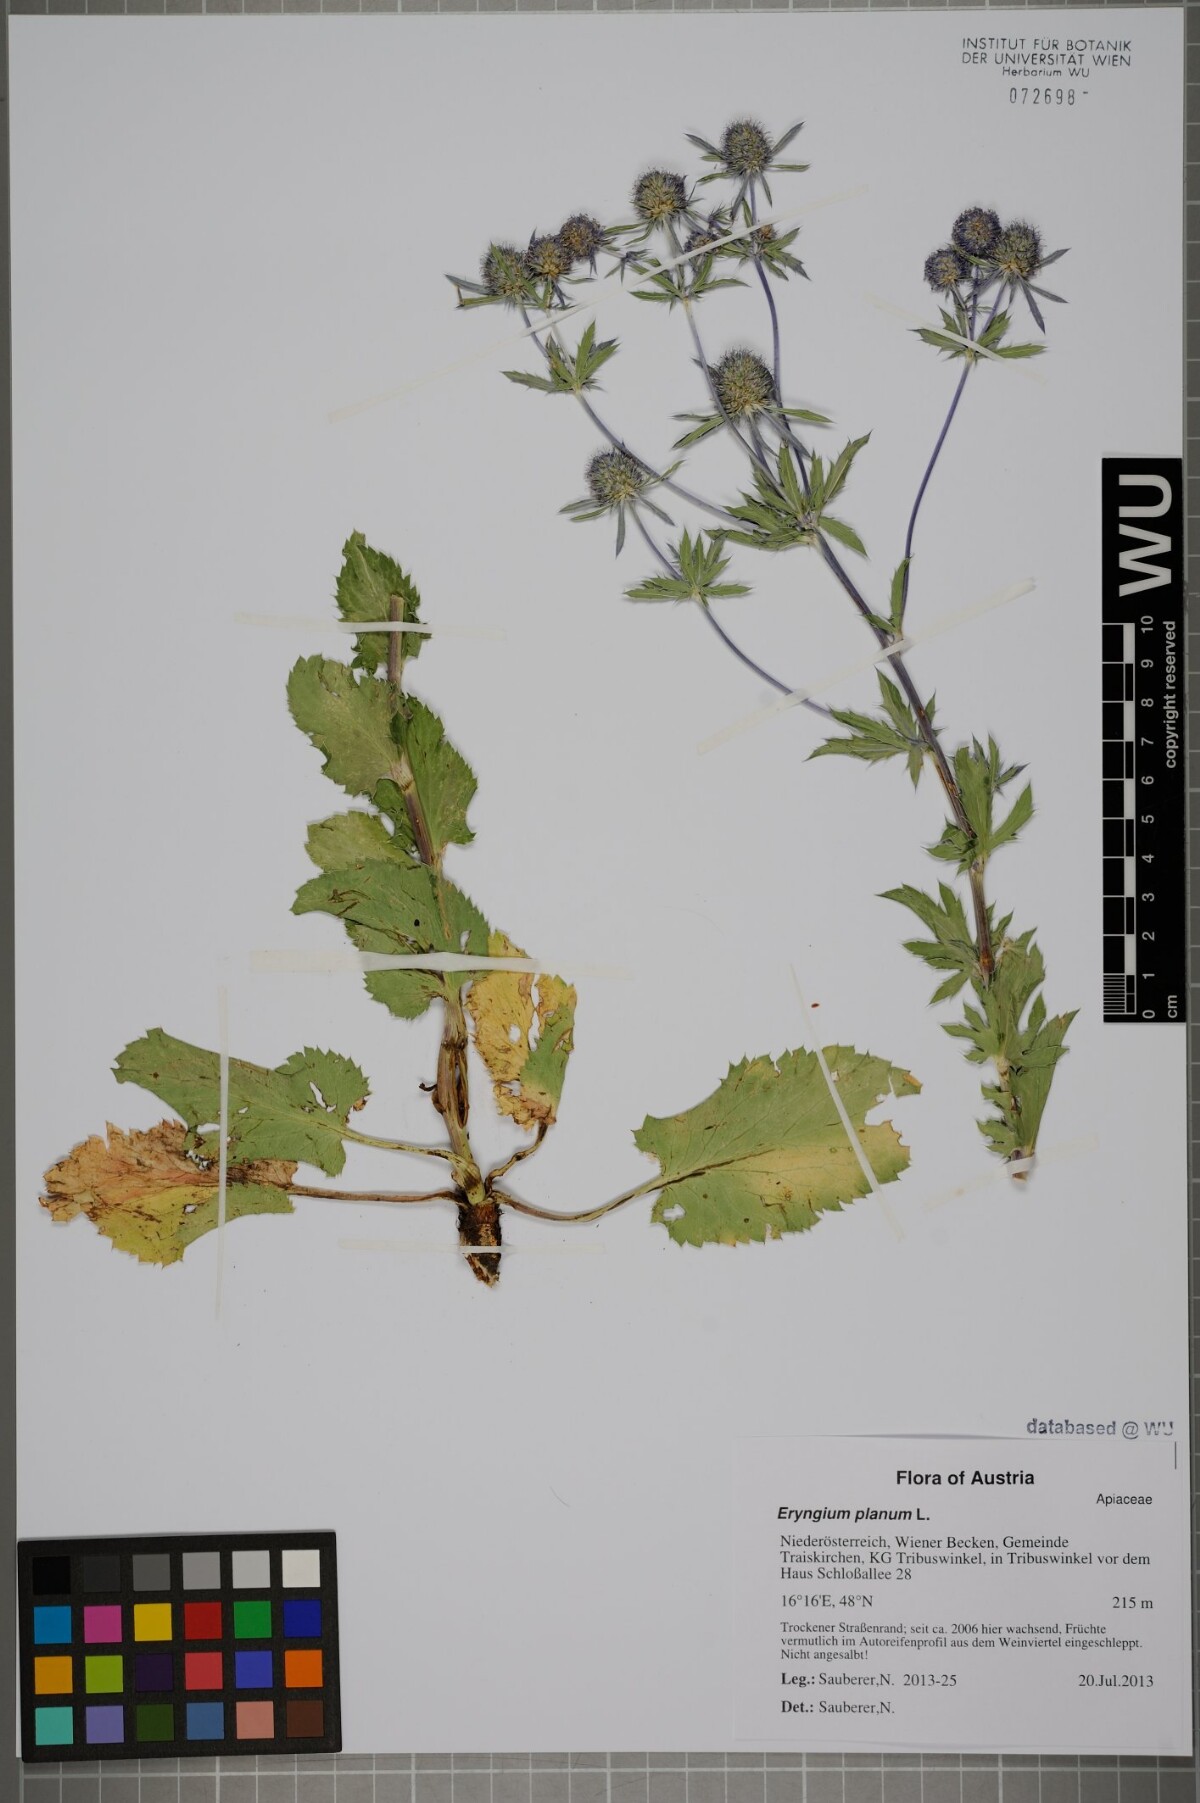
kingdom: Plantae
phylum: Tracheophyta
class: Magnoliopsida
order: Apiales
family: Apiaceae
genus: Eryngium
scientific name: Eryngium planum
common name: Blue eryngo
